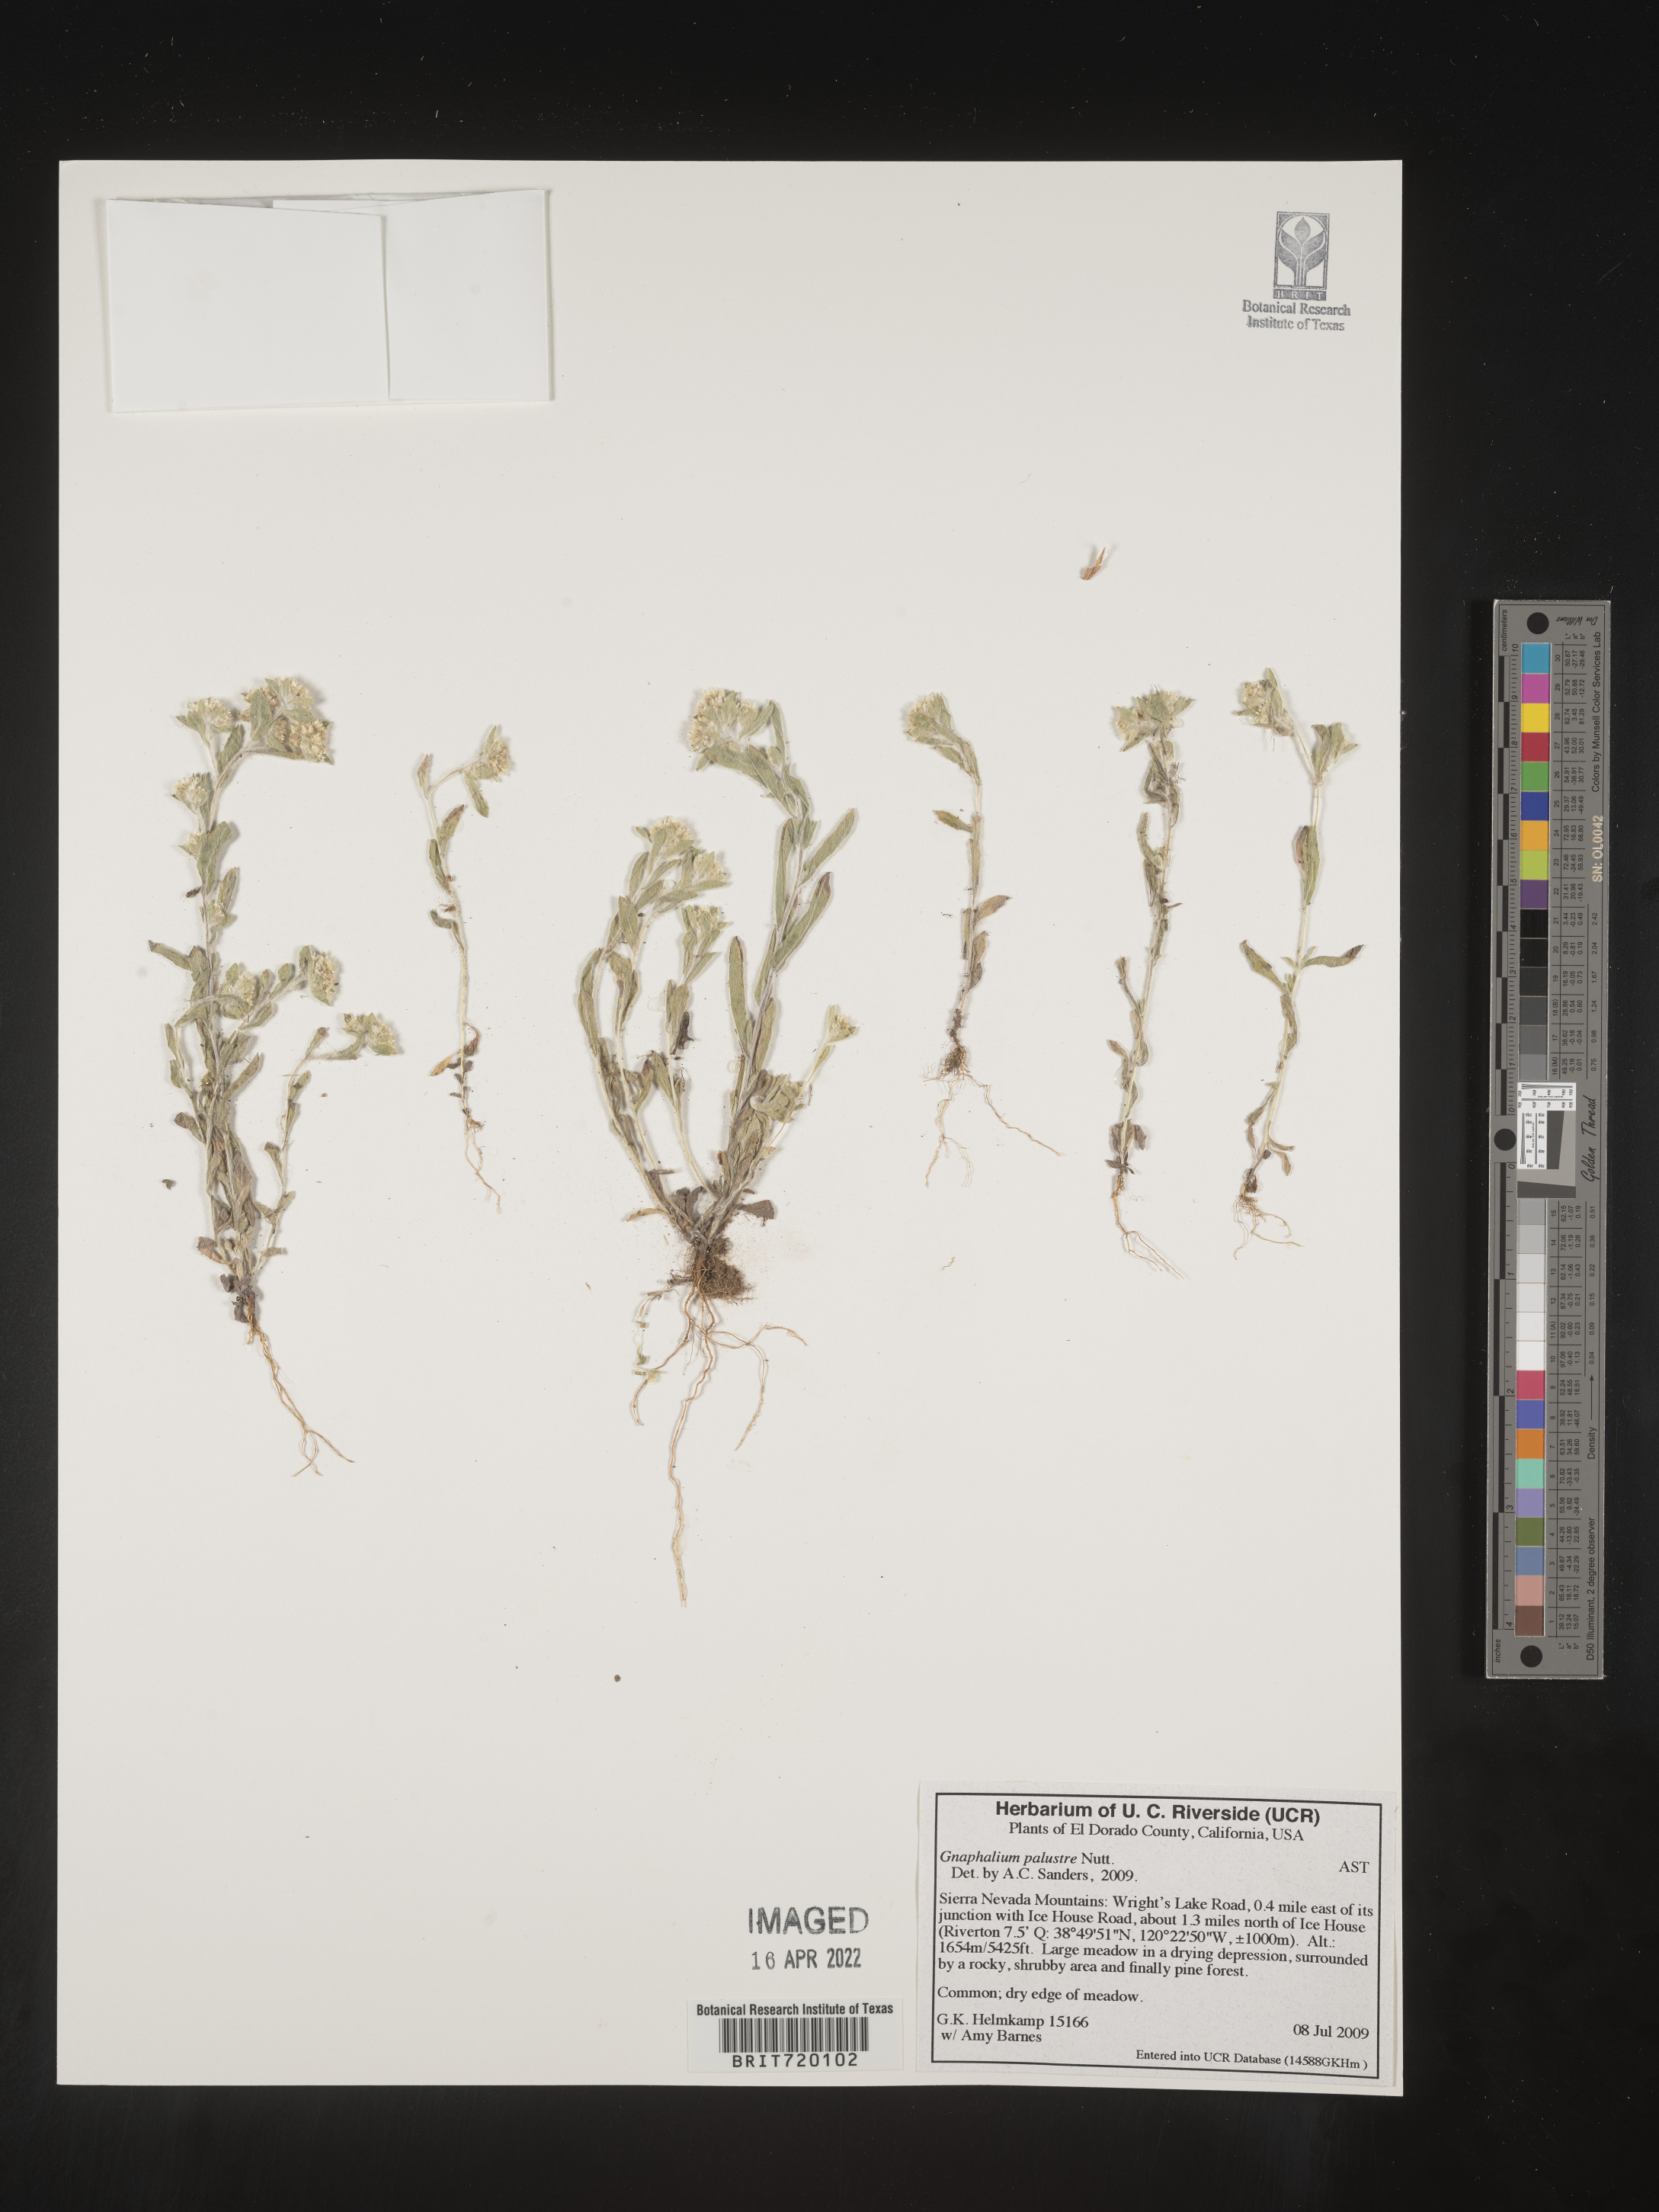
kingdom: Plantae
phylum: Tracheophyta
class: Magnoliopsida
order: Asterales
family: Asteraceae
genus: Gnaphalium
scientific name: Gnaphalium palustre
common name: Western marsh cudweed
